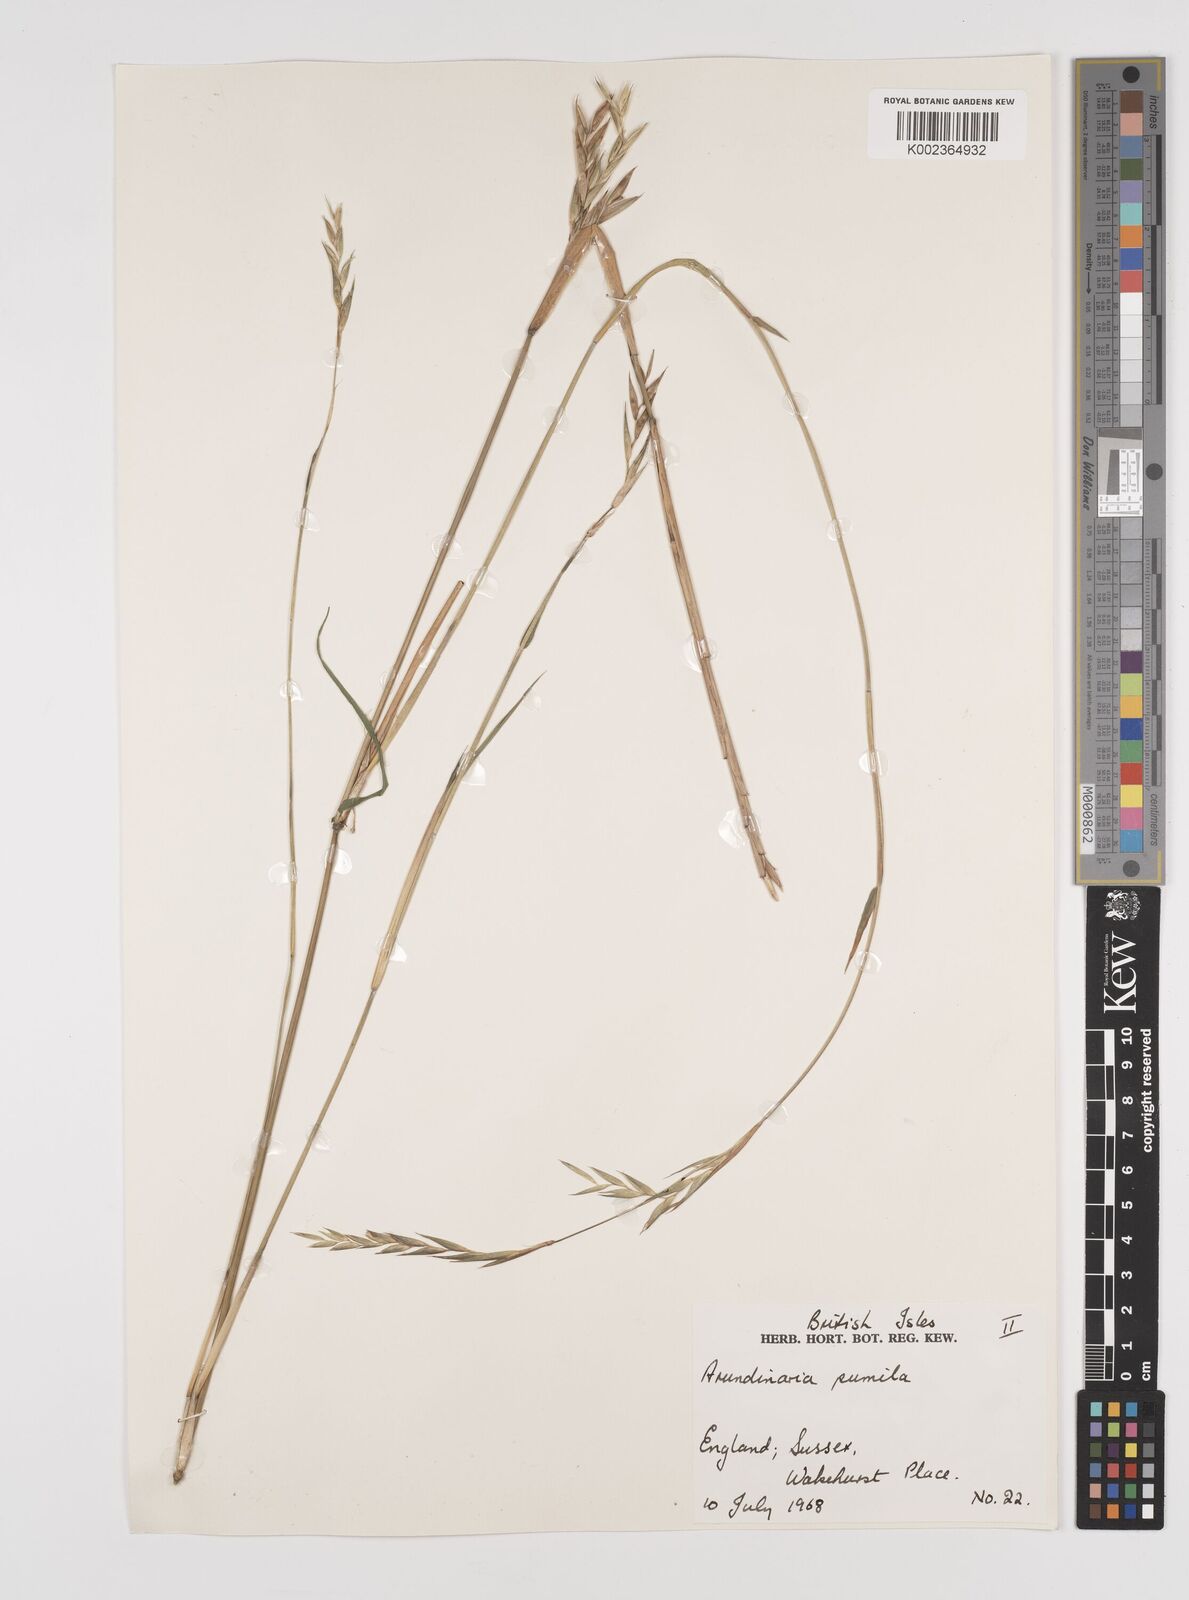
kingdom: Plantae
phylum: Tracheophyta
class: Liliopsida
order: Poales
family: Poaceae
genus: Pleioblastus
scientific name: Pleioblastus argenteostriatus
